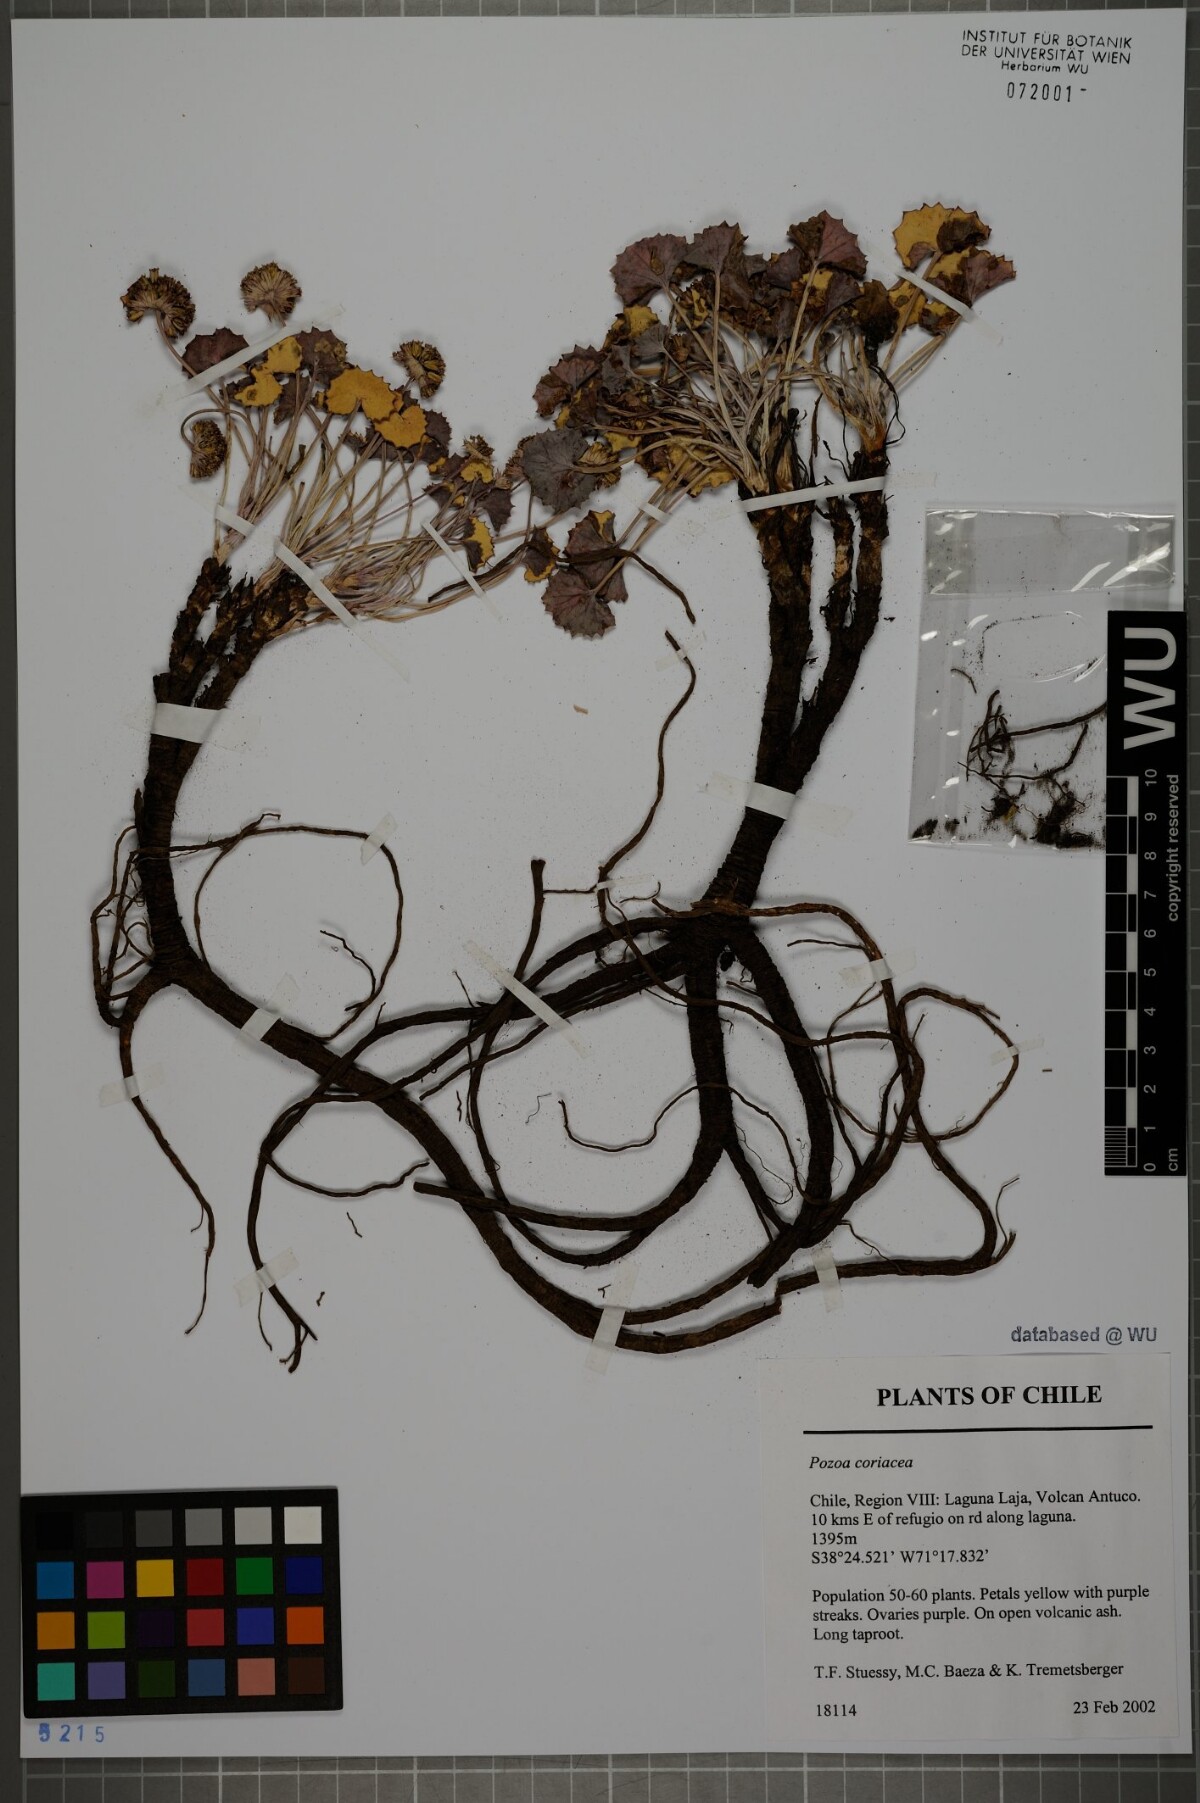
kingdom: Plantae
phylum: Tracheophyta
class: Magnoliopsida
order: Apiales
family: Apiaceae
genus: Pozoa
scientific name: Pozoa coriacea
